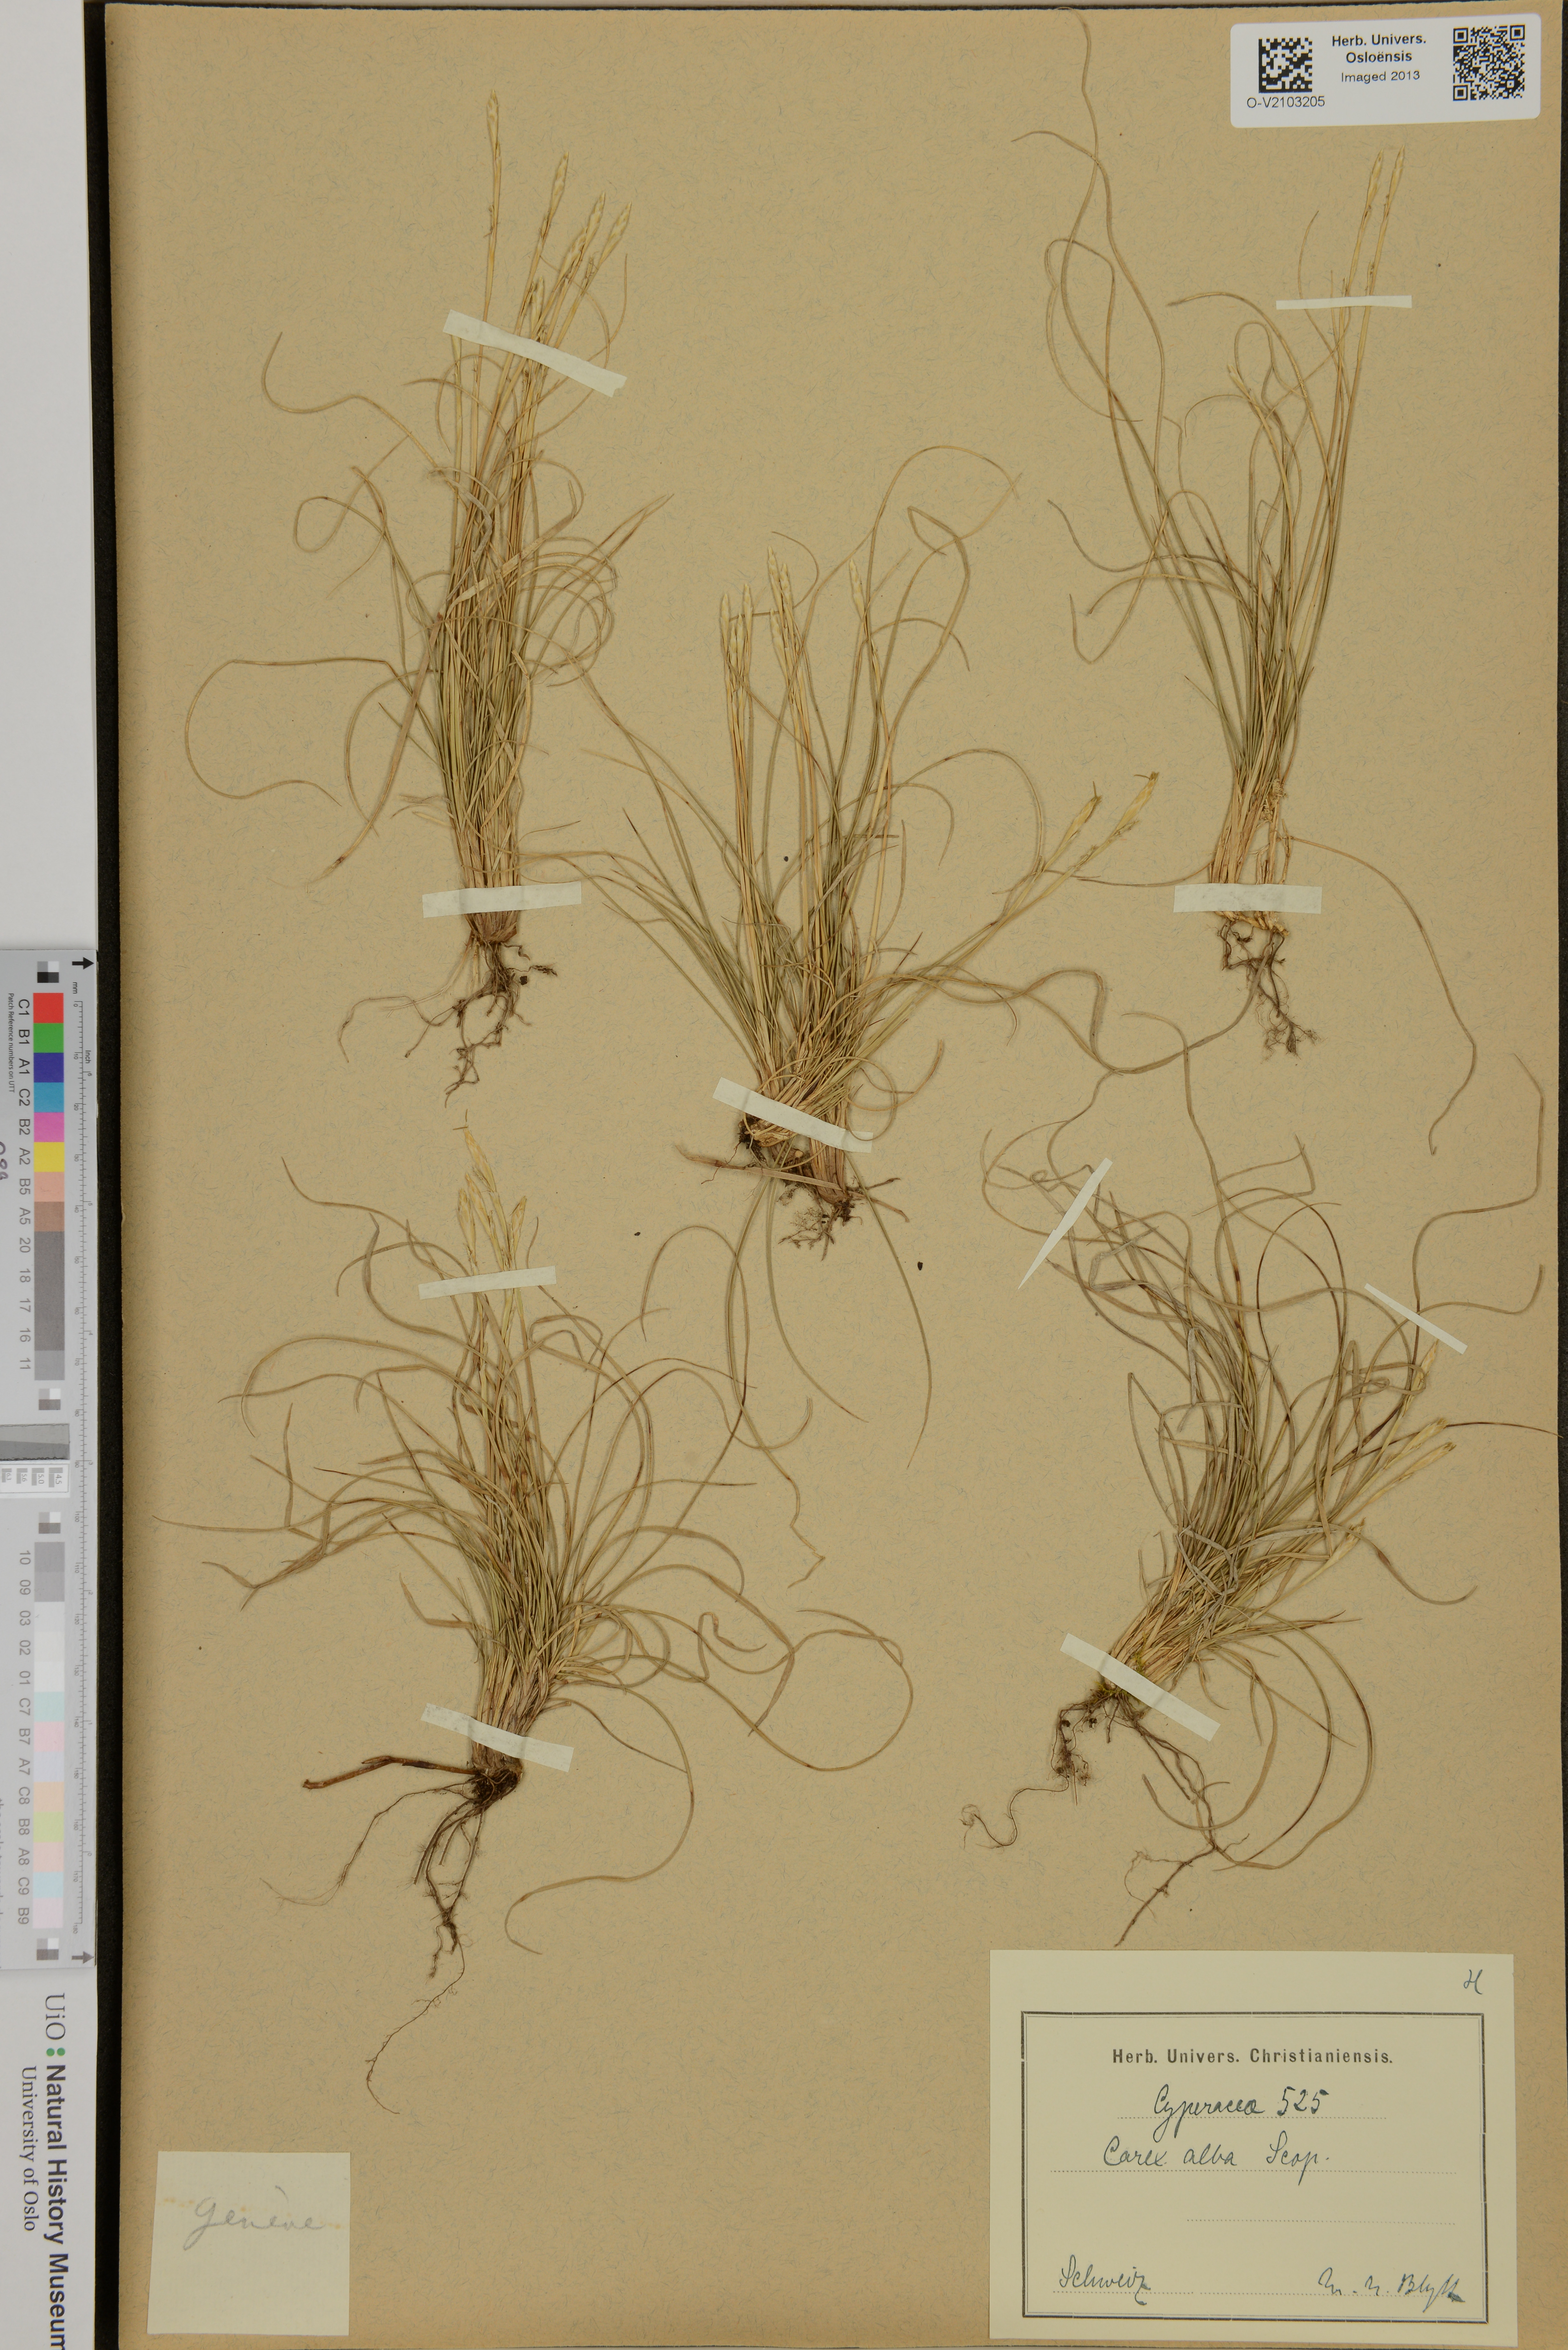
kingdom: Plantae
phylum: Tracheophyta
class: Liliopsida
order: Poales
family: Cyperaceae
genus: Carex
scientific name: Carex alba
